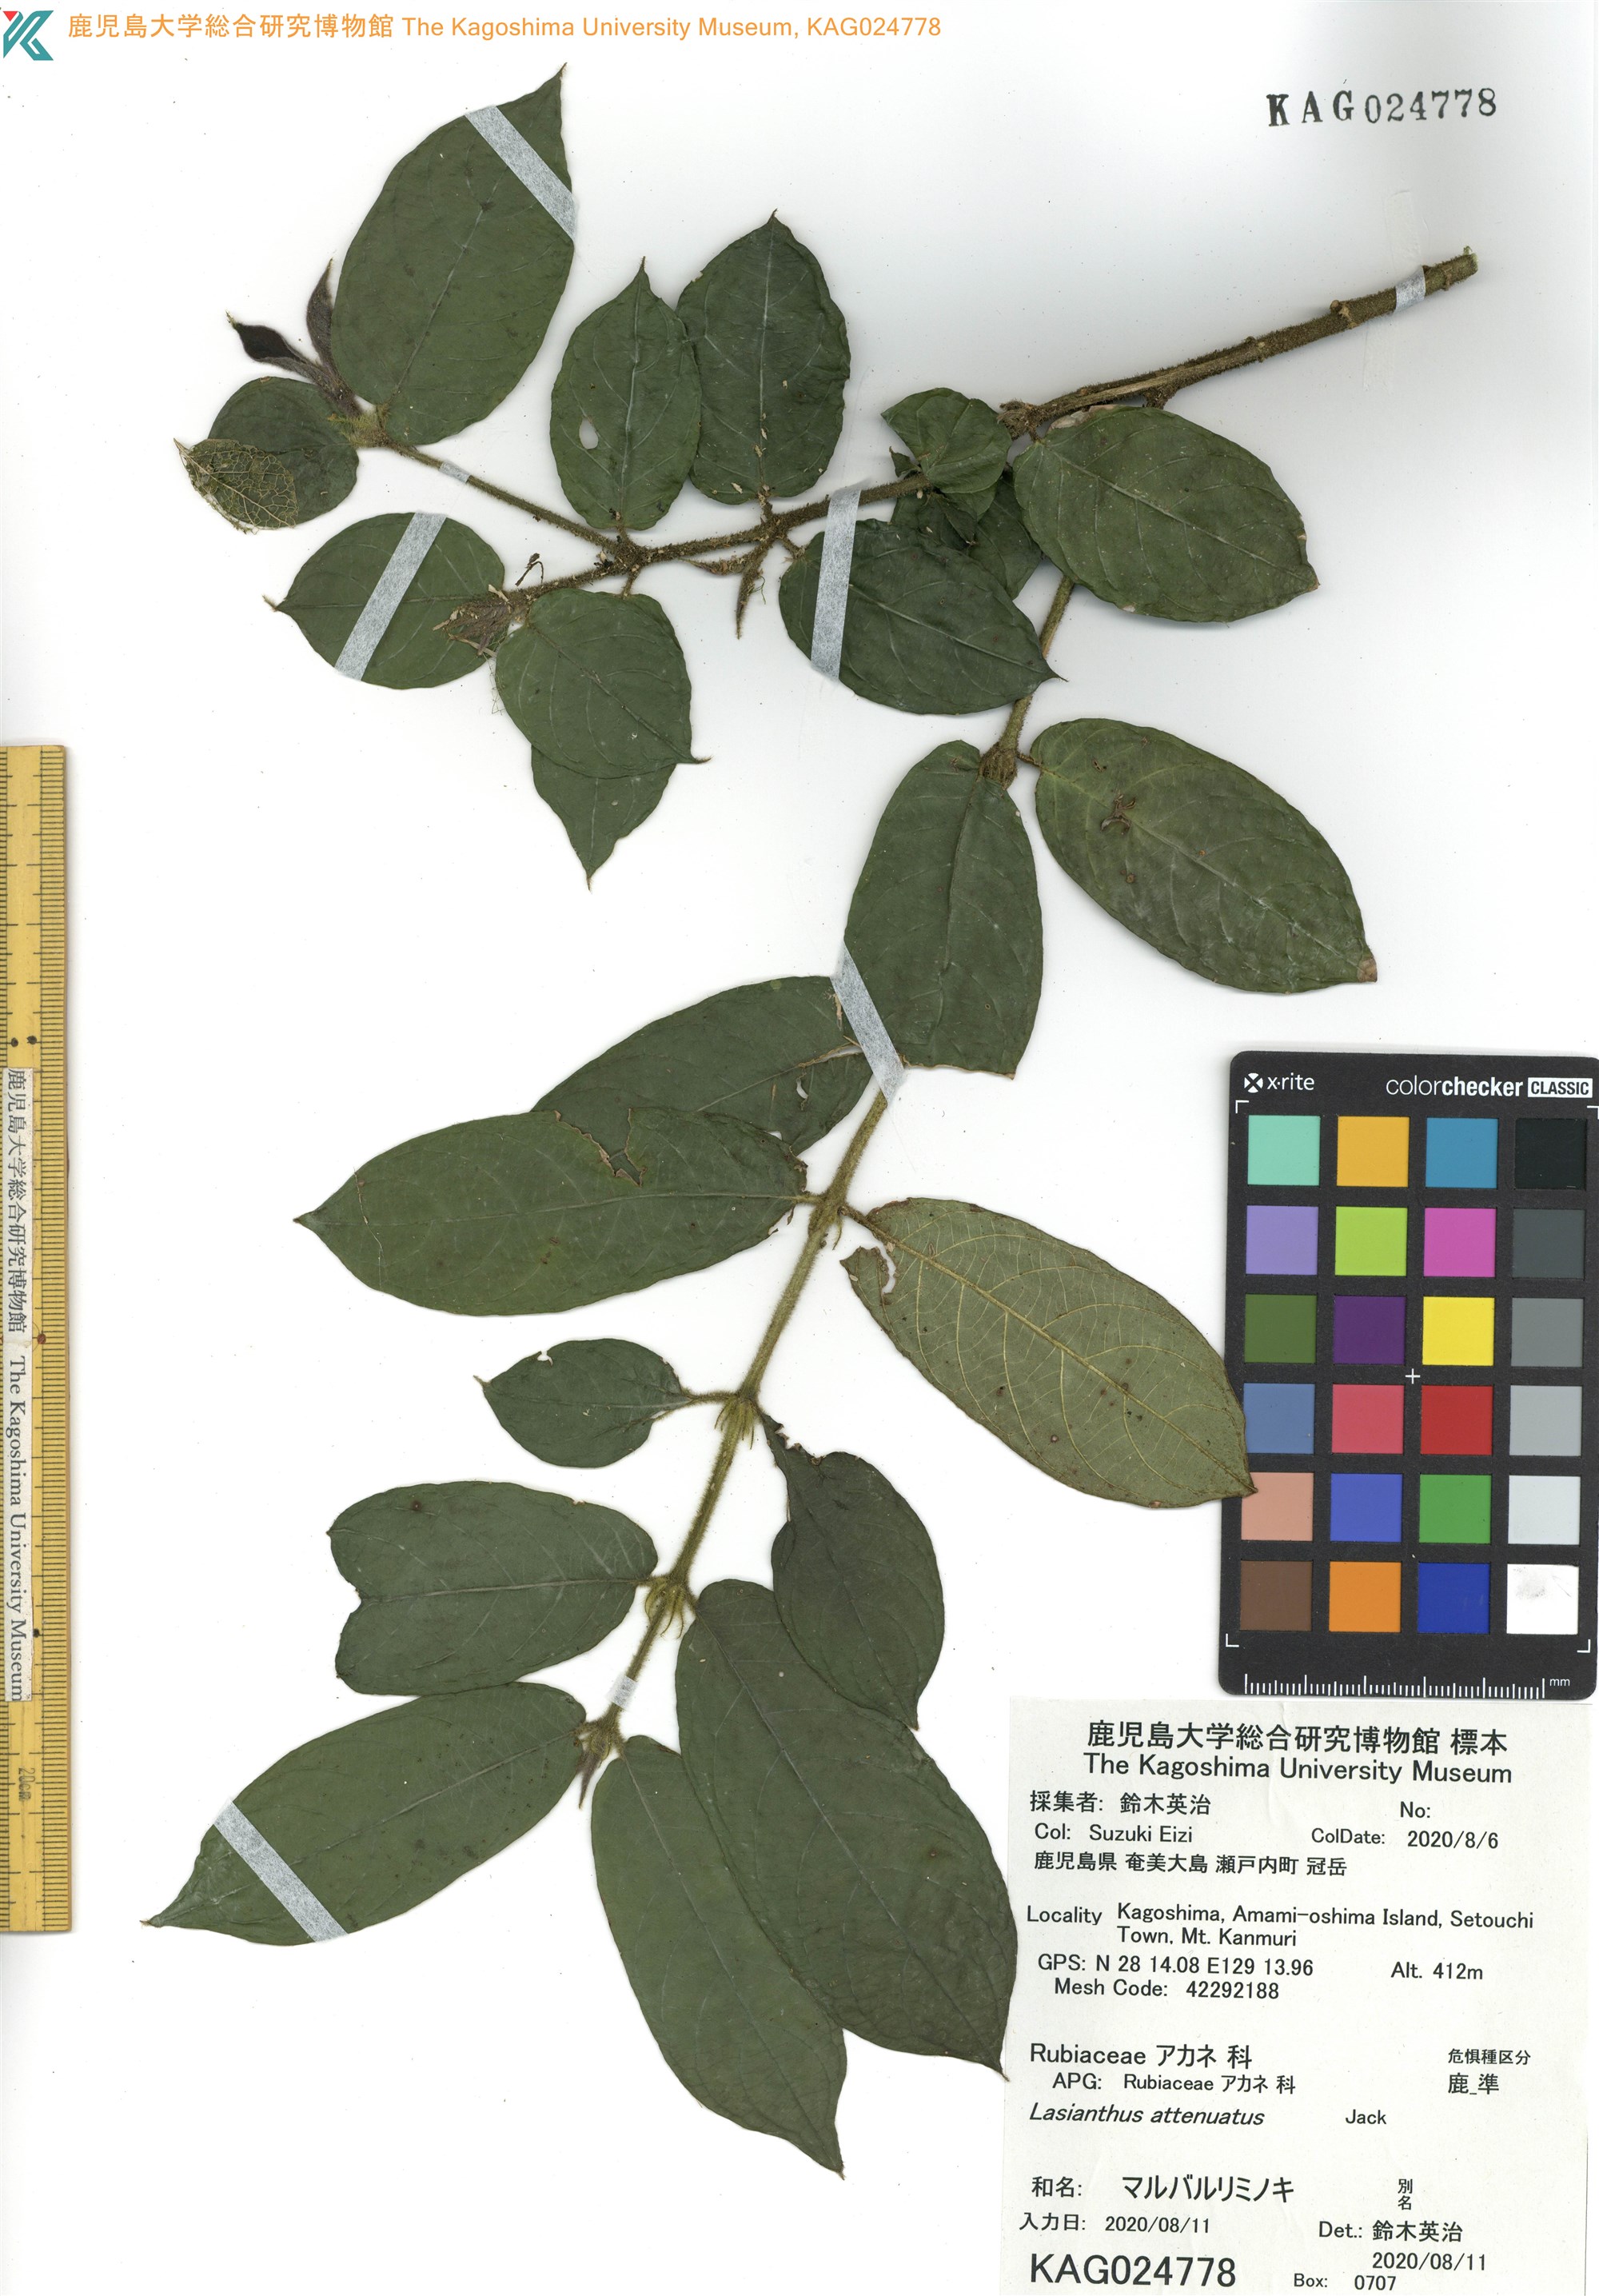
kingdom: Plantae
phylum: Tracheophyta
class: Magnoliopsida
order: Gentianales
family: Rubiaceae
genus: Lasianthus
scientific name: Lasianthus attenuatus
